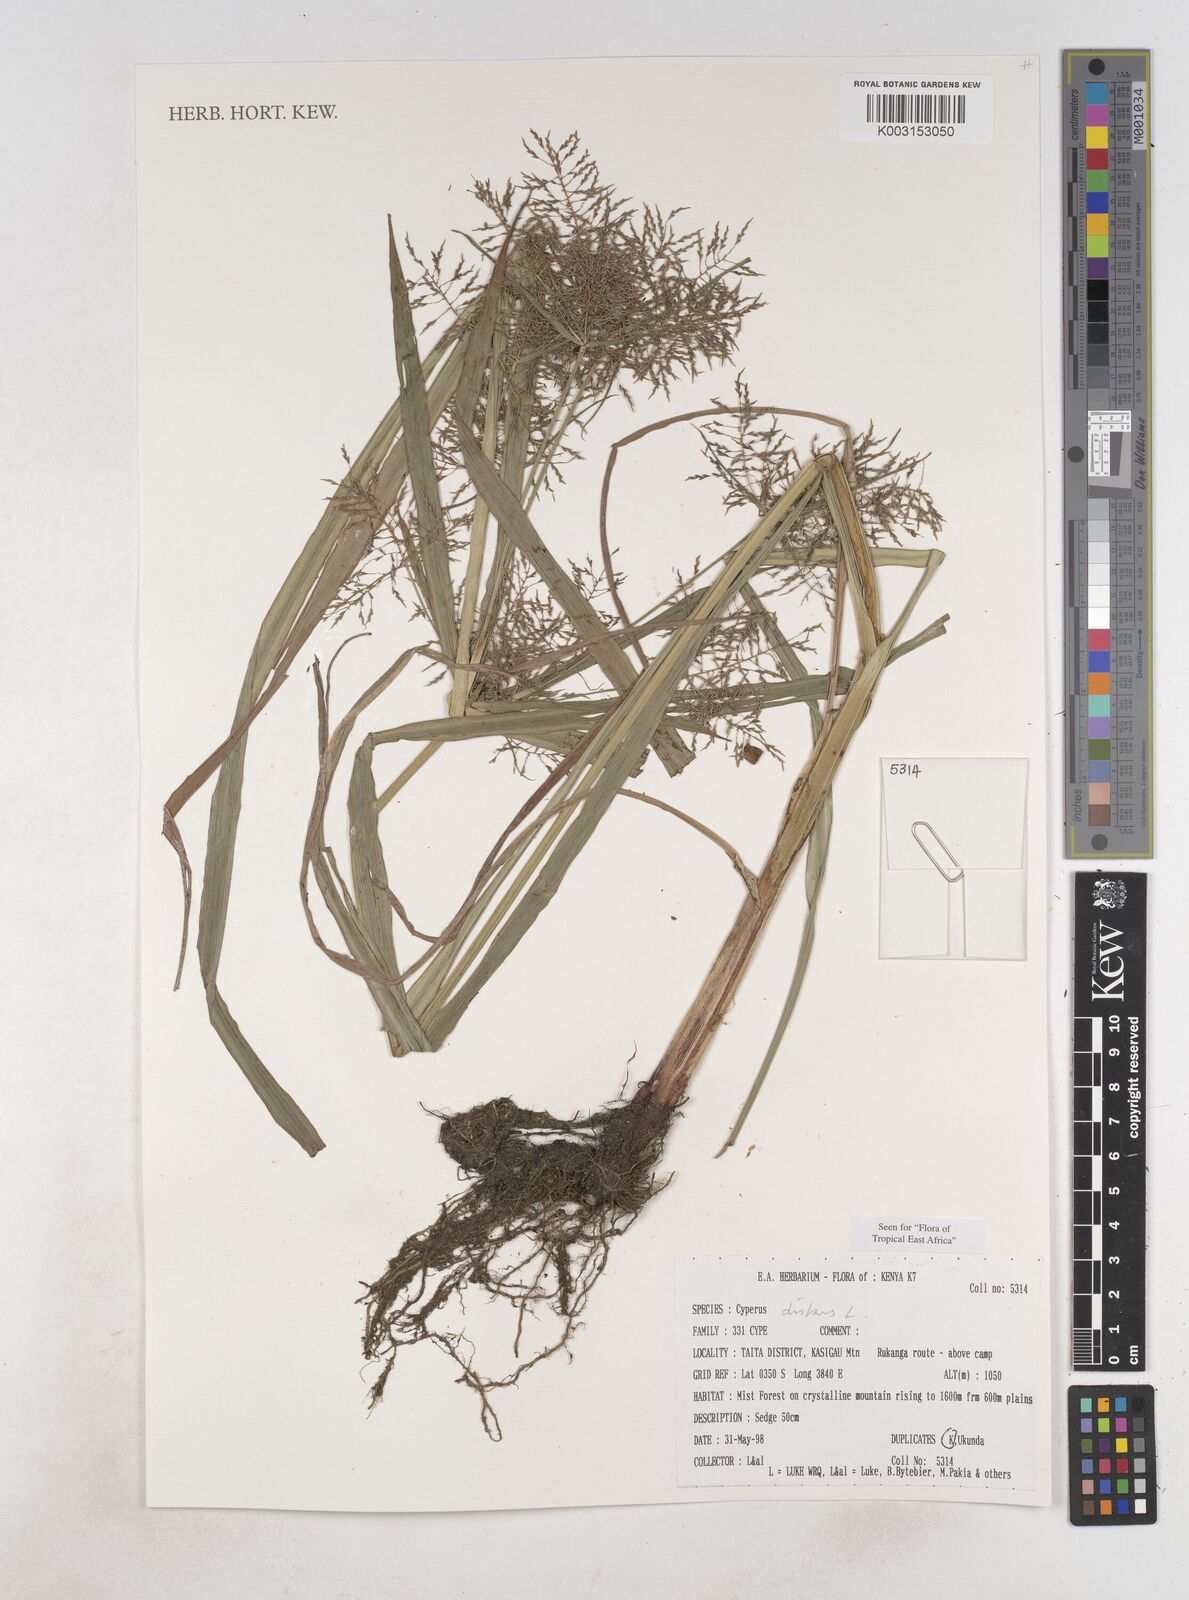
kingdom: Plantae
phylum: Tracheophyta
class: Liliopsida
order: Poales
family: Cyperaceae
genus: Cyperus
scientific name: Cyperus distans
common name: Slender cyperus
